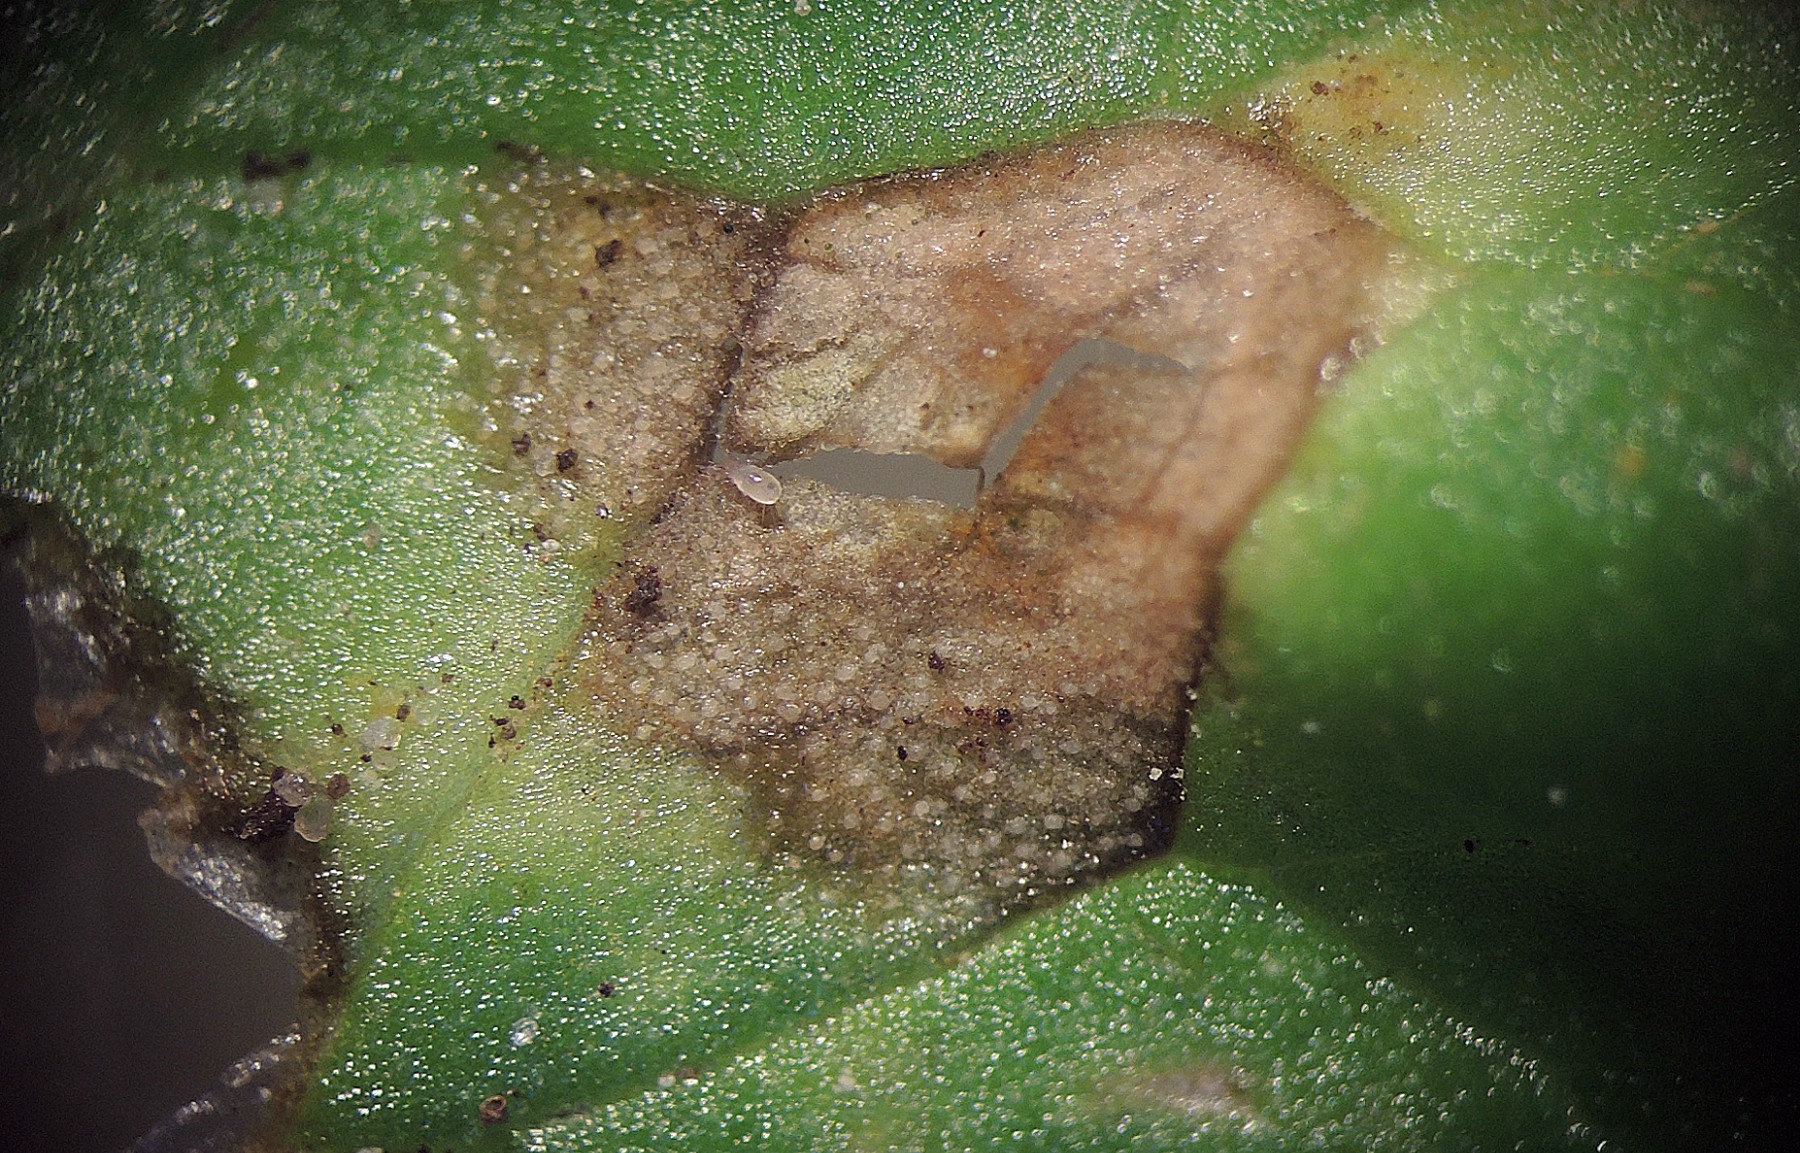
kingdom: Fungi
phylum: Basidiomycota
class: Exobasidiomycetes
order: Entylomatales
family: Entylomataceae
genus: Entyloma
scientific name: Entyloma ficariae
